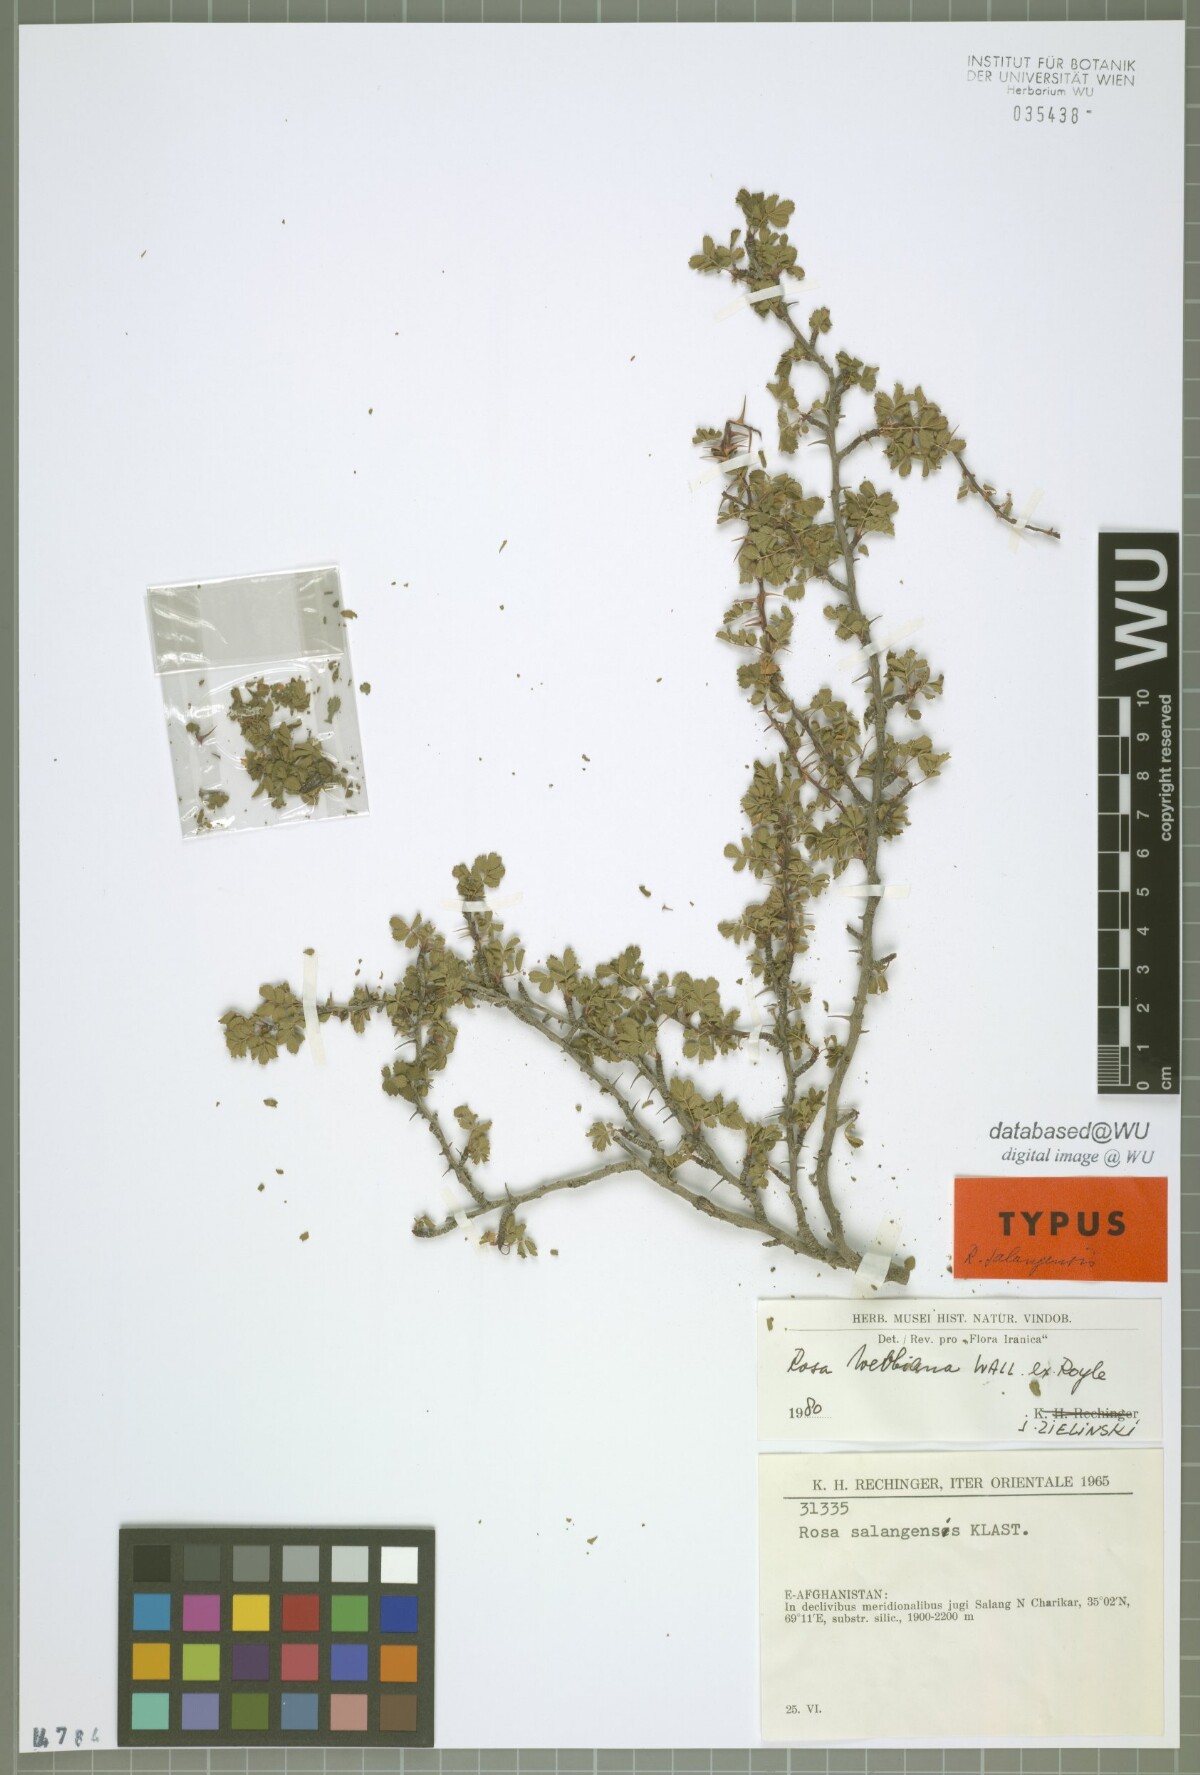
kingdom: Plantae
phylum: Tracheophyta
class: Magnoliopsida
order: Rosales
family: Rosaceae
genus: Rosa
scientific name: Rosa salangensis
